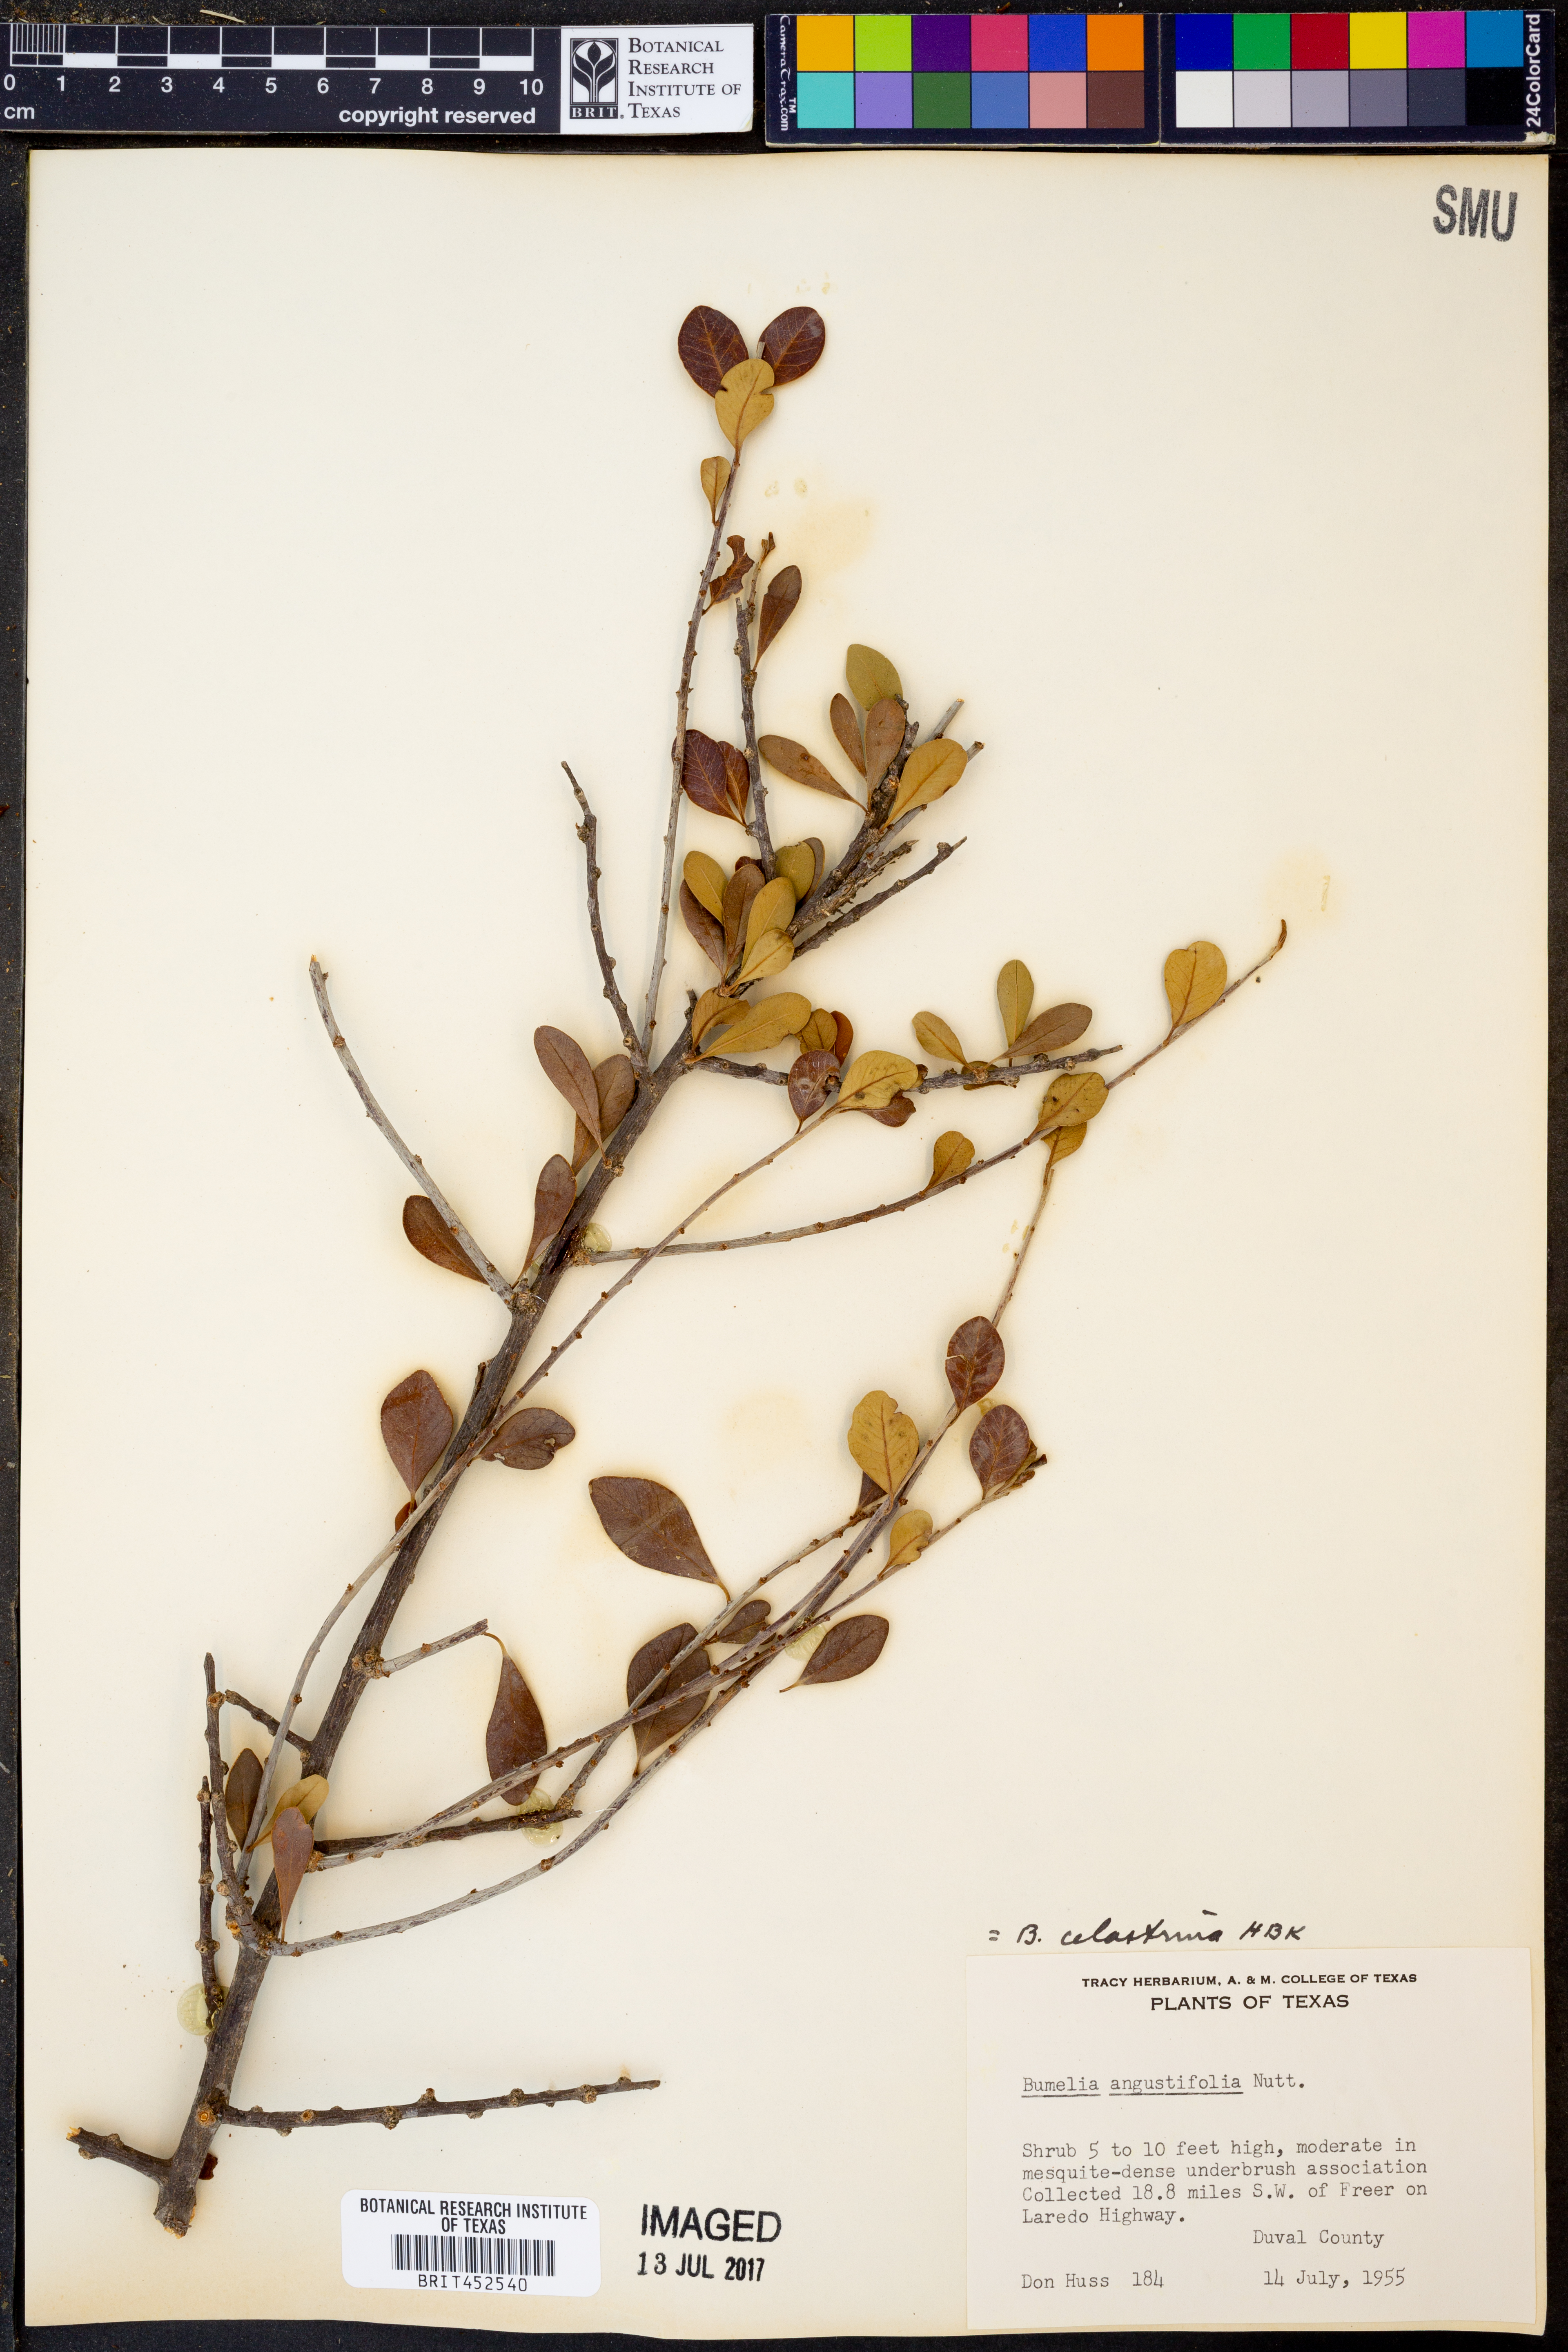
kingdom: Plantae
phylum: Tracheophyta
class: Magnoliopsida
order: Ericales
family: Sapotaceae
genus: Sideroxylon
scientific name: Sideroxylon celastrinum
